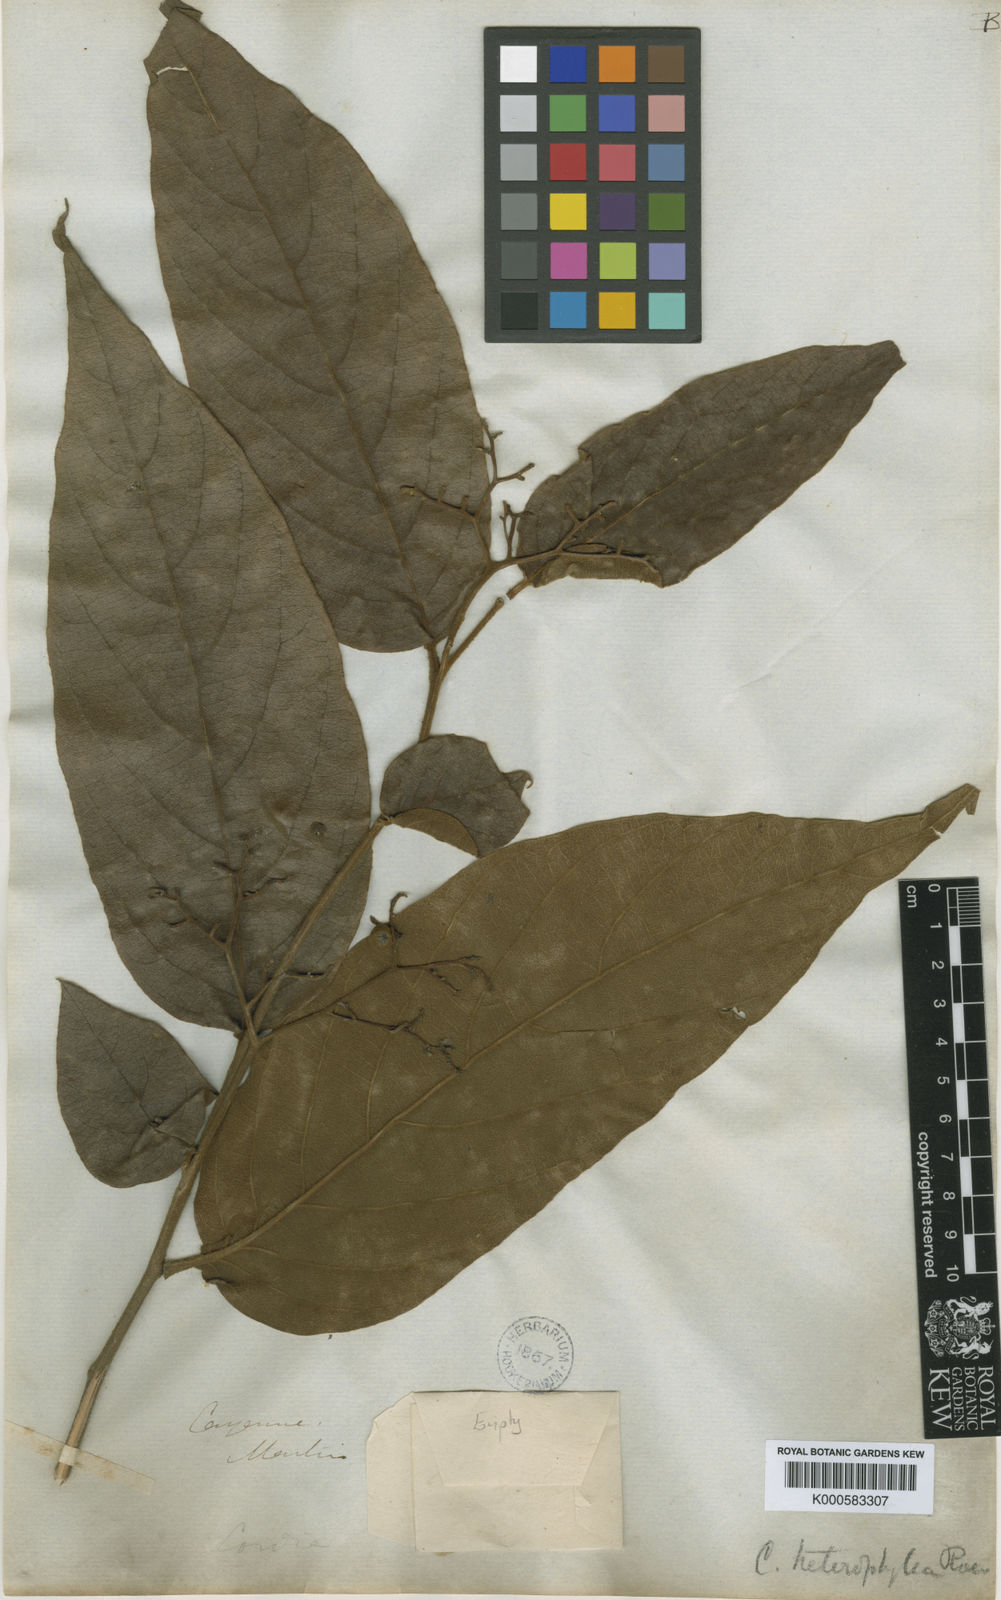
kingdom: Plantae
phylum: Tracheophyta
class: Magnoliopsida
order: Boraginales
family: Cordiaceae
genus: Cordia
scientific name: Cordia
